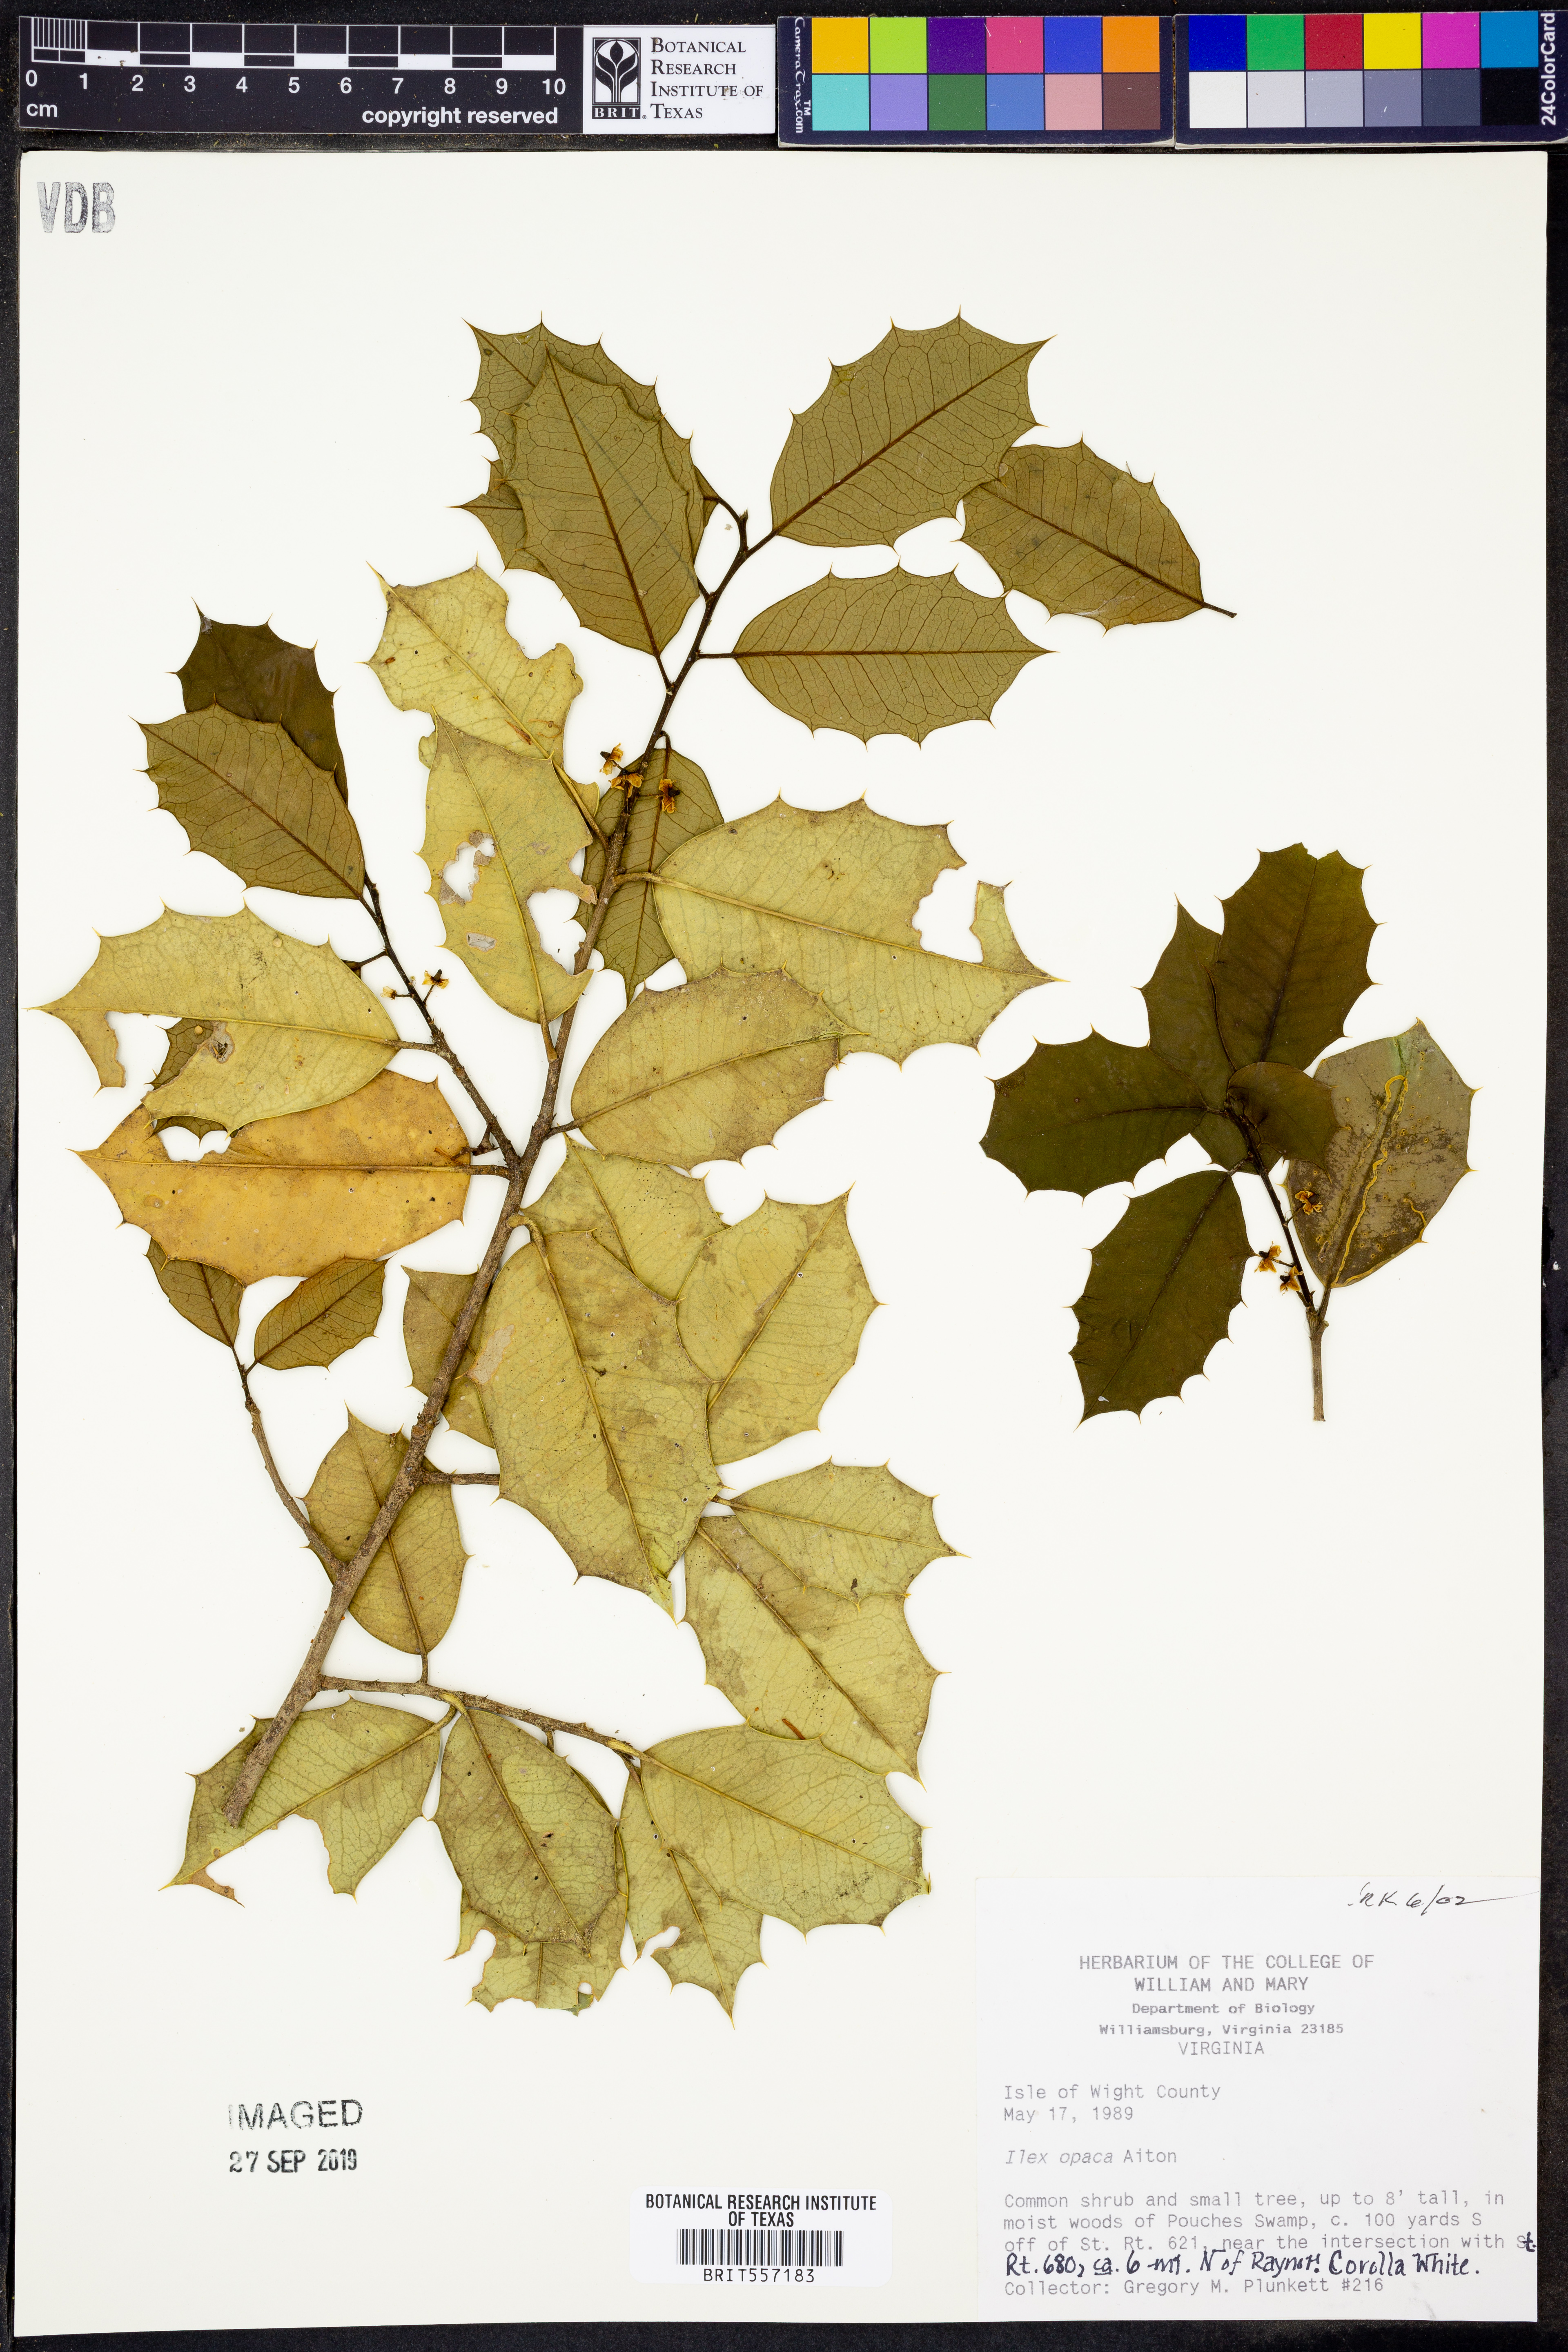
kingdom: Plantae
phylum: Tracheophyta
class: Magnoliopsida
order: Aquifoliales
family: Aquifoliaceae
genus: Ilex
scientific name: Ilex opaca
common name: American holly
